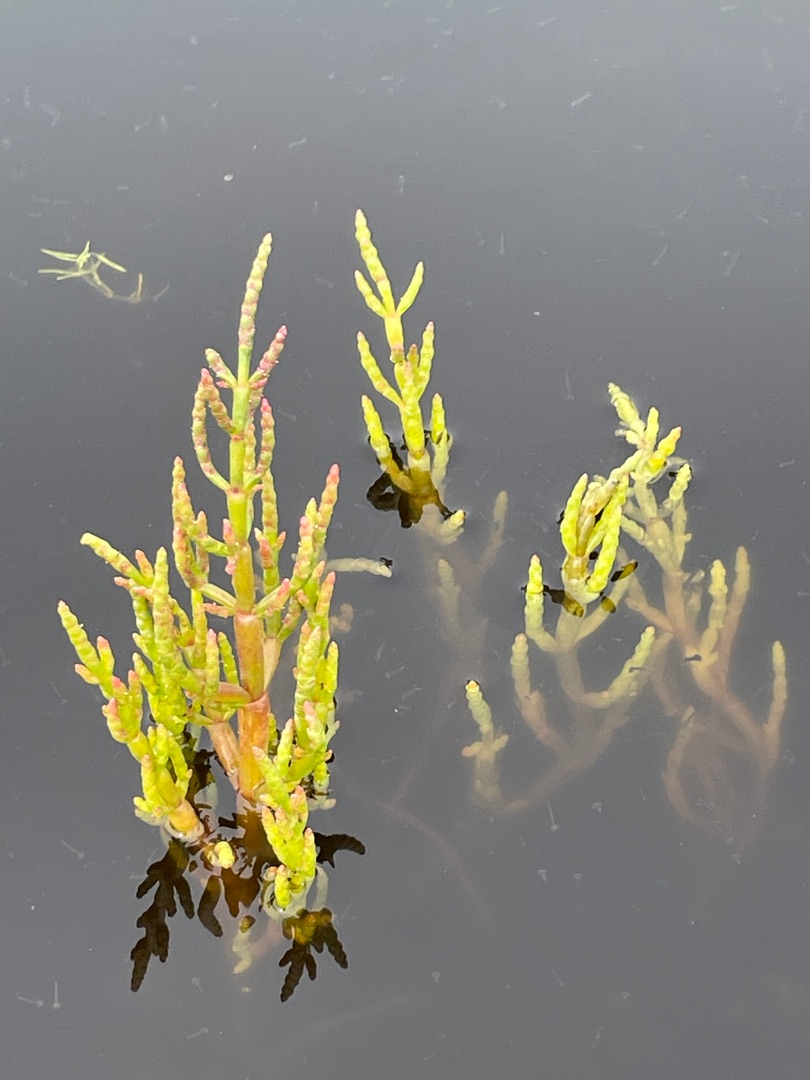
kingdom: Plantae
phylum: Tracheophyta
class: Magnoliopsida
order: Caryophyllales
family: Amaranthaceae
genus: Salicornia
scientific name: Salicornia europaea
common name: Almindelig salturt
